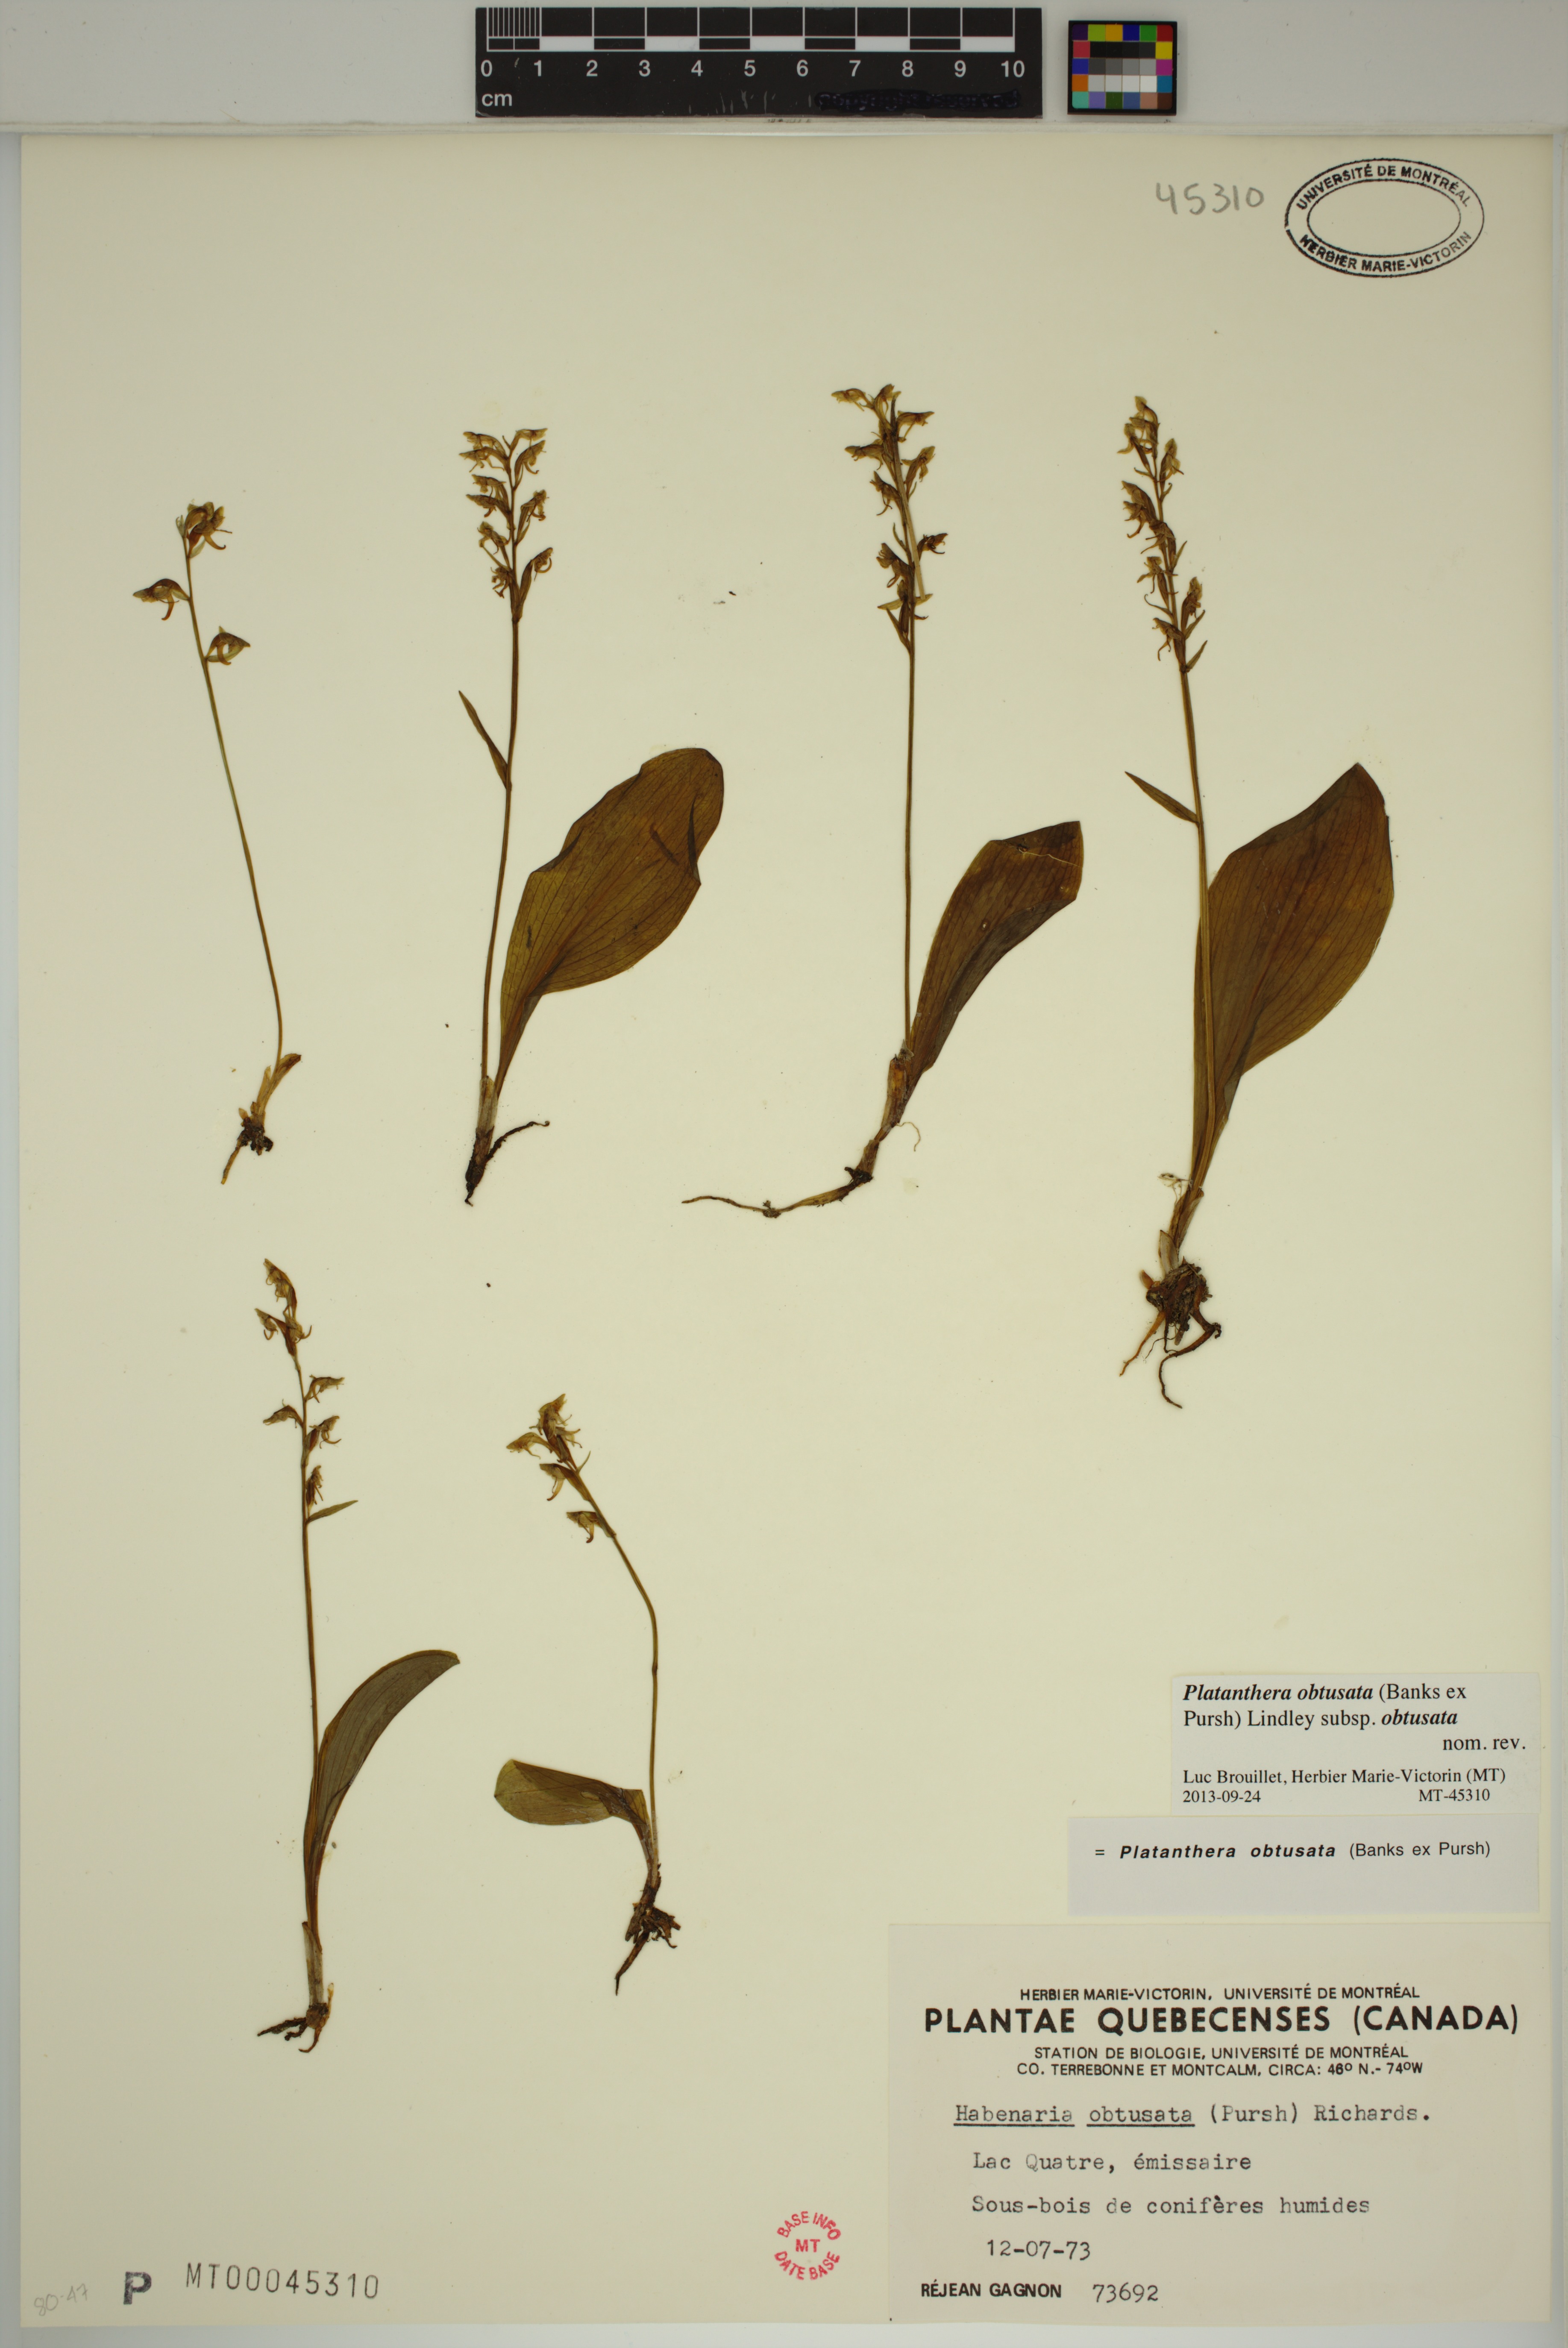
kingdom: Plantae
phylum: Tracheophyta
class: Liliopsida
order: Asparagales
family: Orchidaceae
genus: Platanthera
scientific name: Platanthera obtusata
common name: Blunt bog orchid
